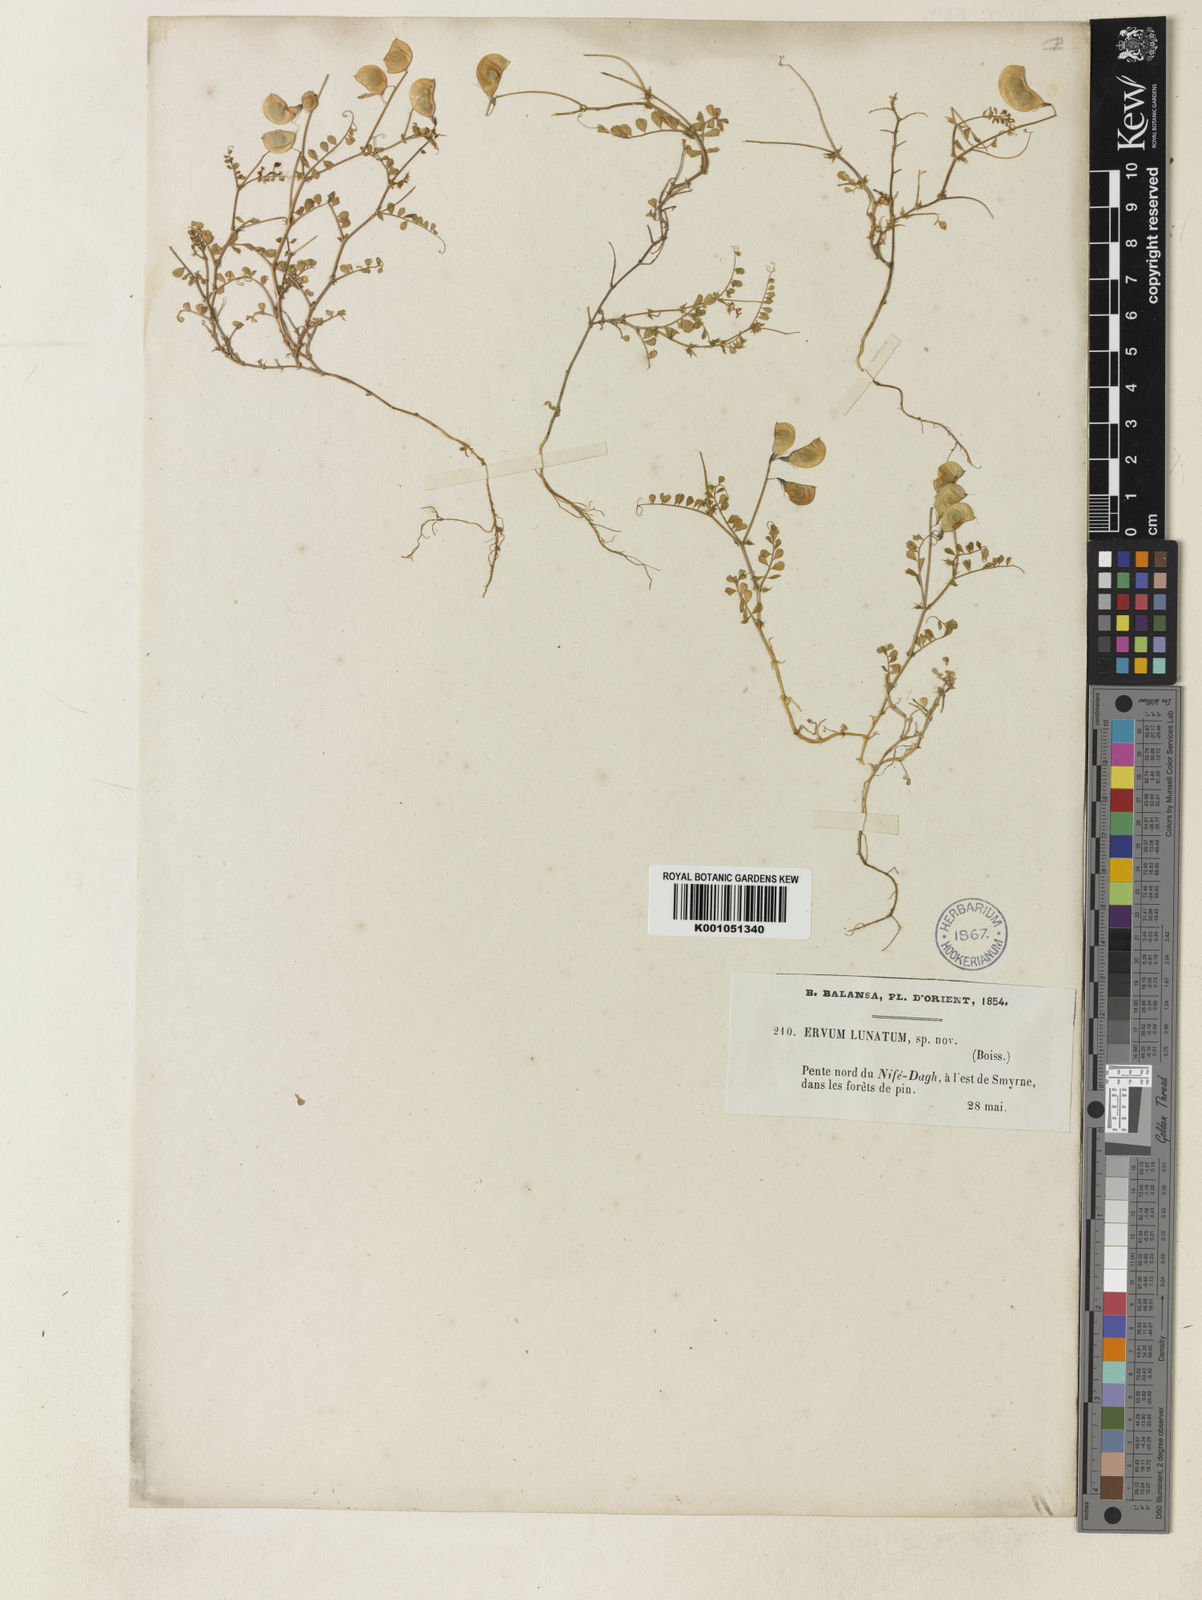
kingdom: Plantae
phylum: Tracheophyta
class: Magnoliopsida
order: Fabales
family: Fabaceae
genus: Vicia
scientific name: Vicia lunata
